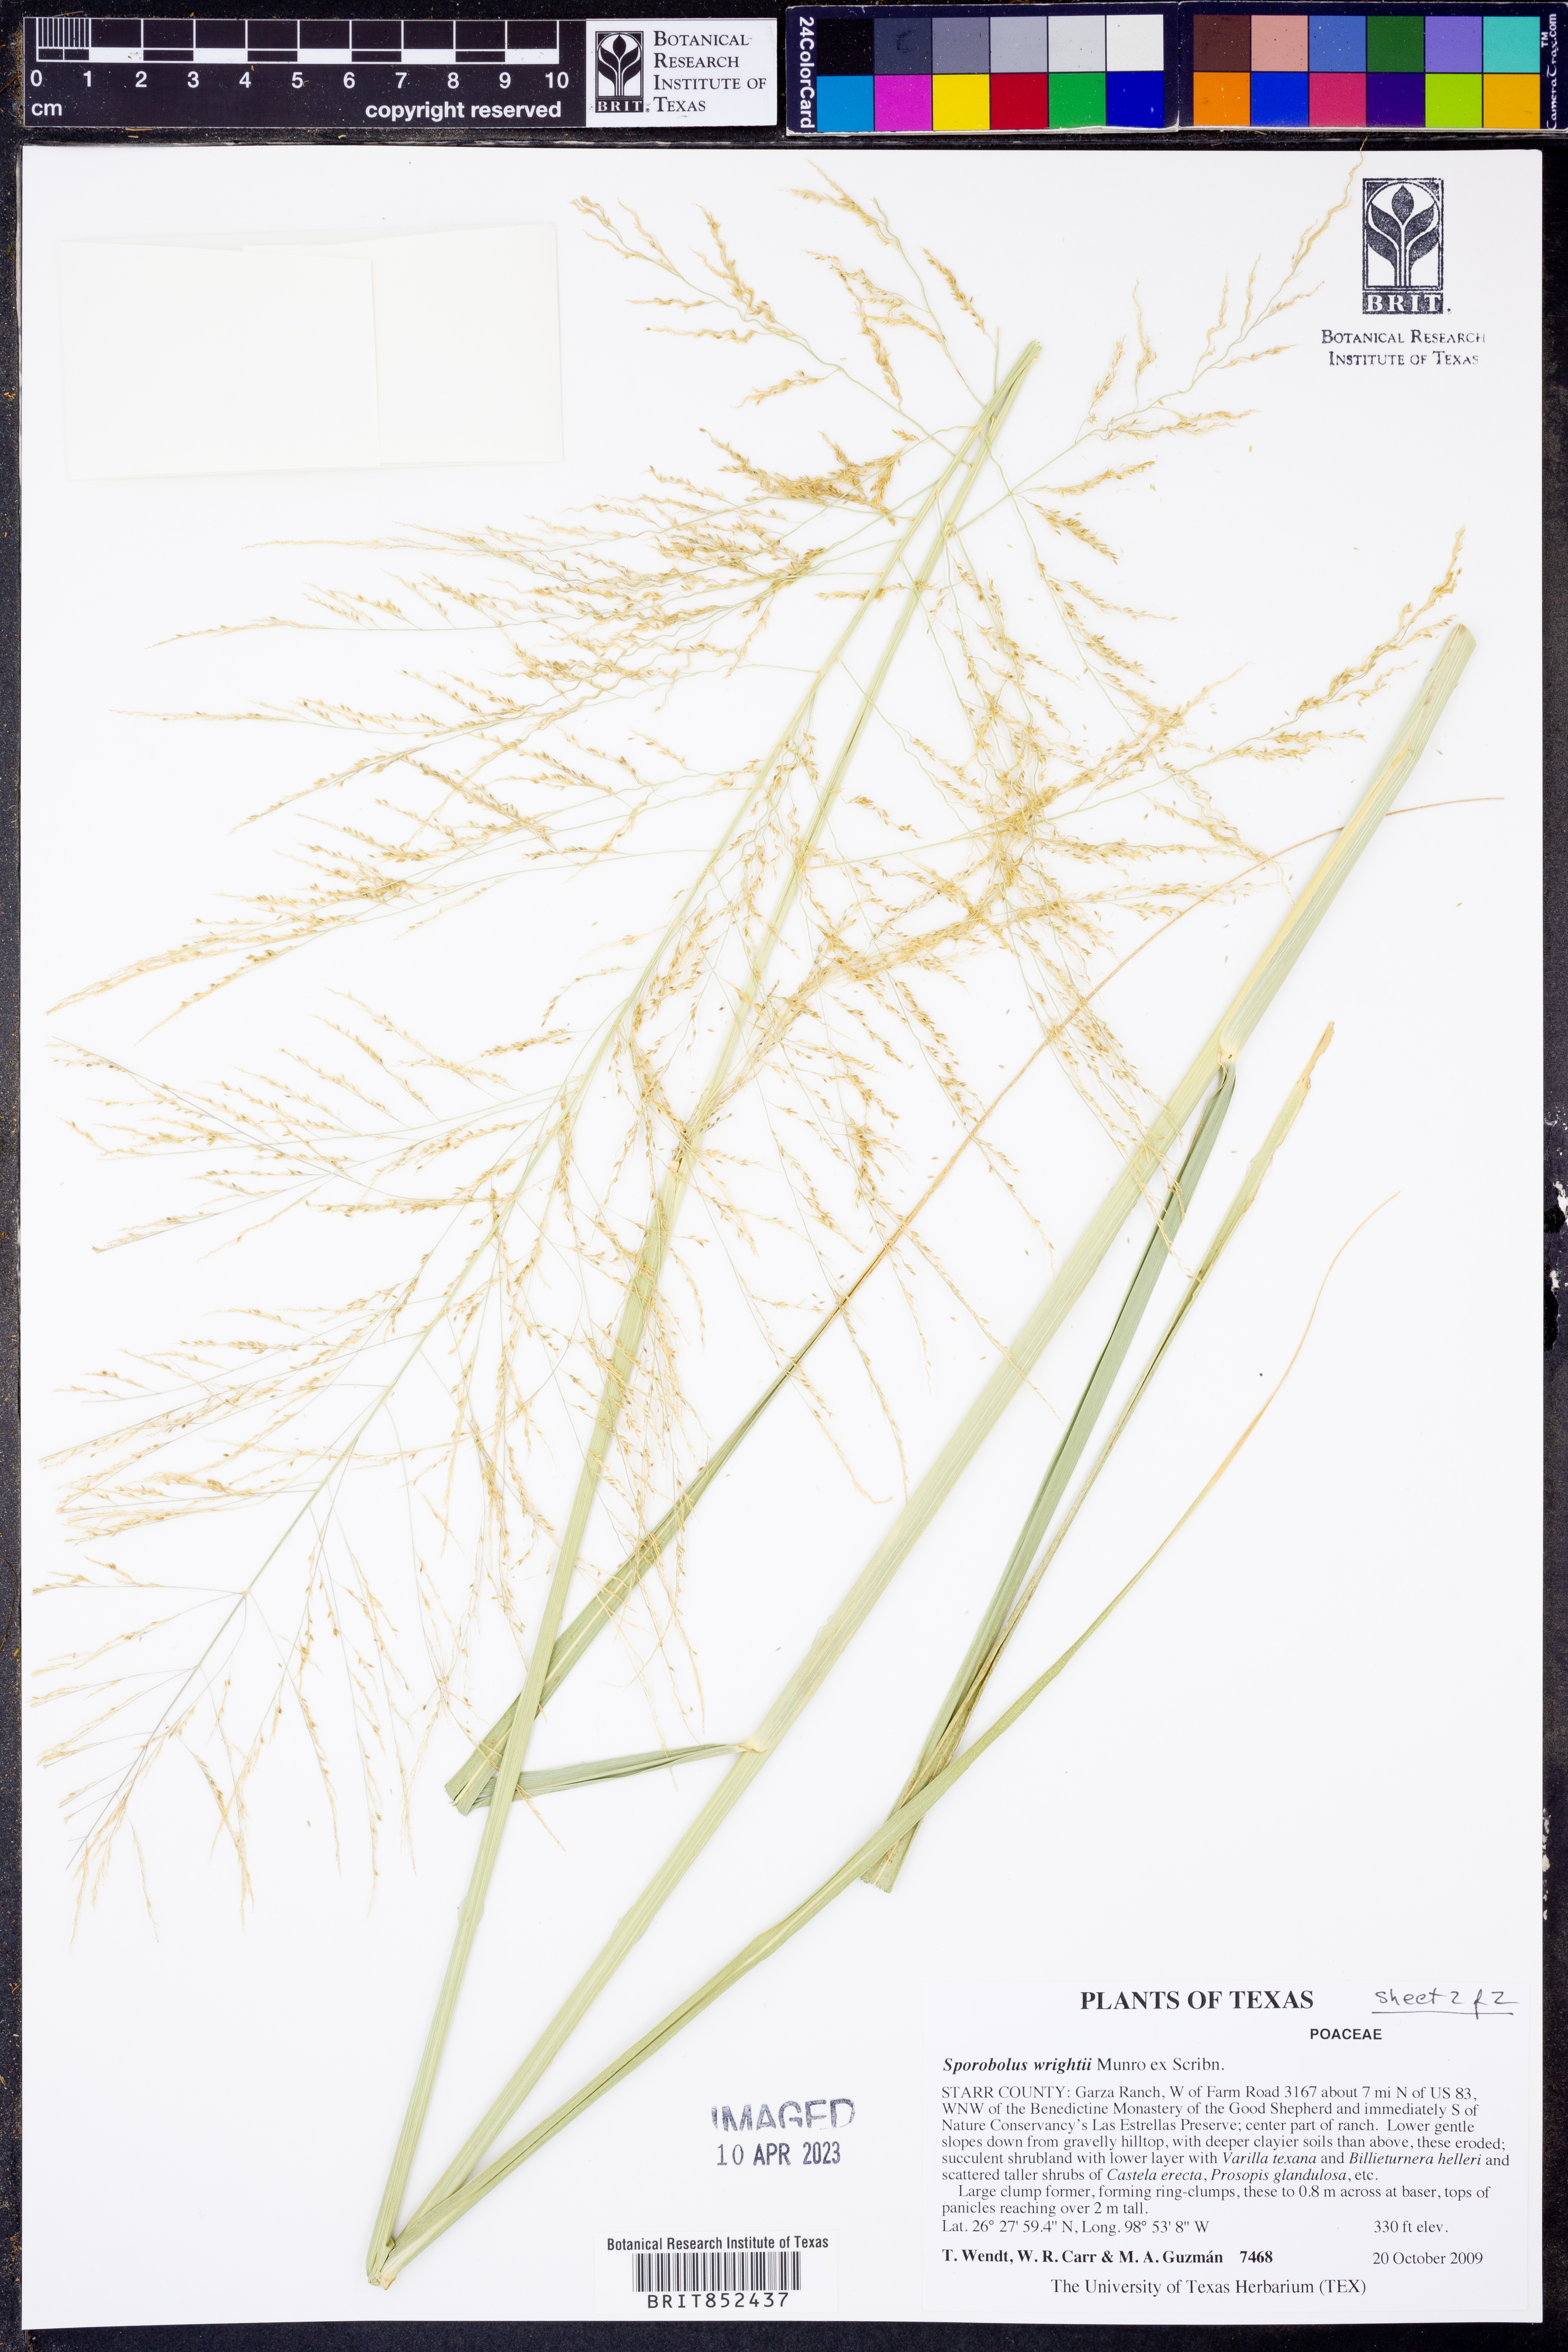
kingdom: Plantae
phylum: Tracheophyta
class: Liliopsida
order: Poales
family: Poaceae
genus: Sporobolus
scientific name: Sporobolus wrightii
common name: Big alkali sacaton
